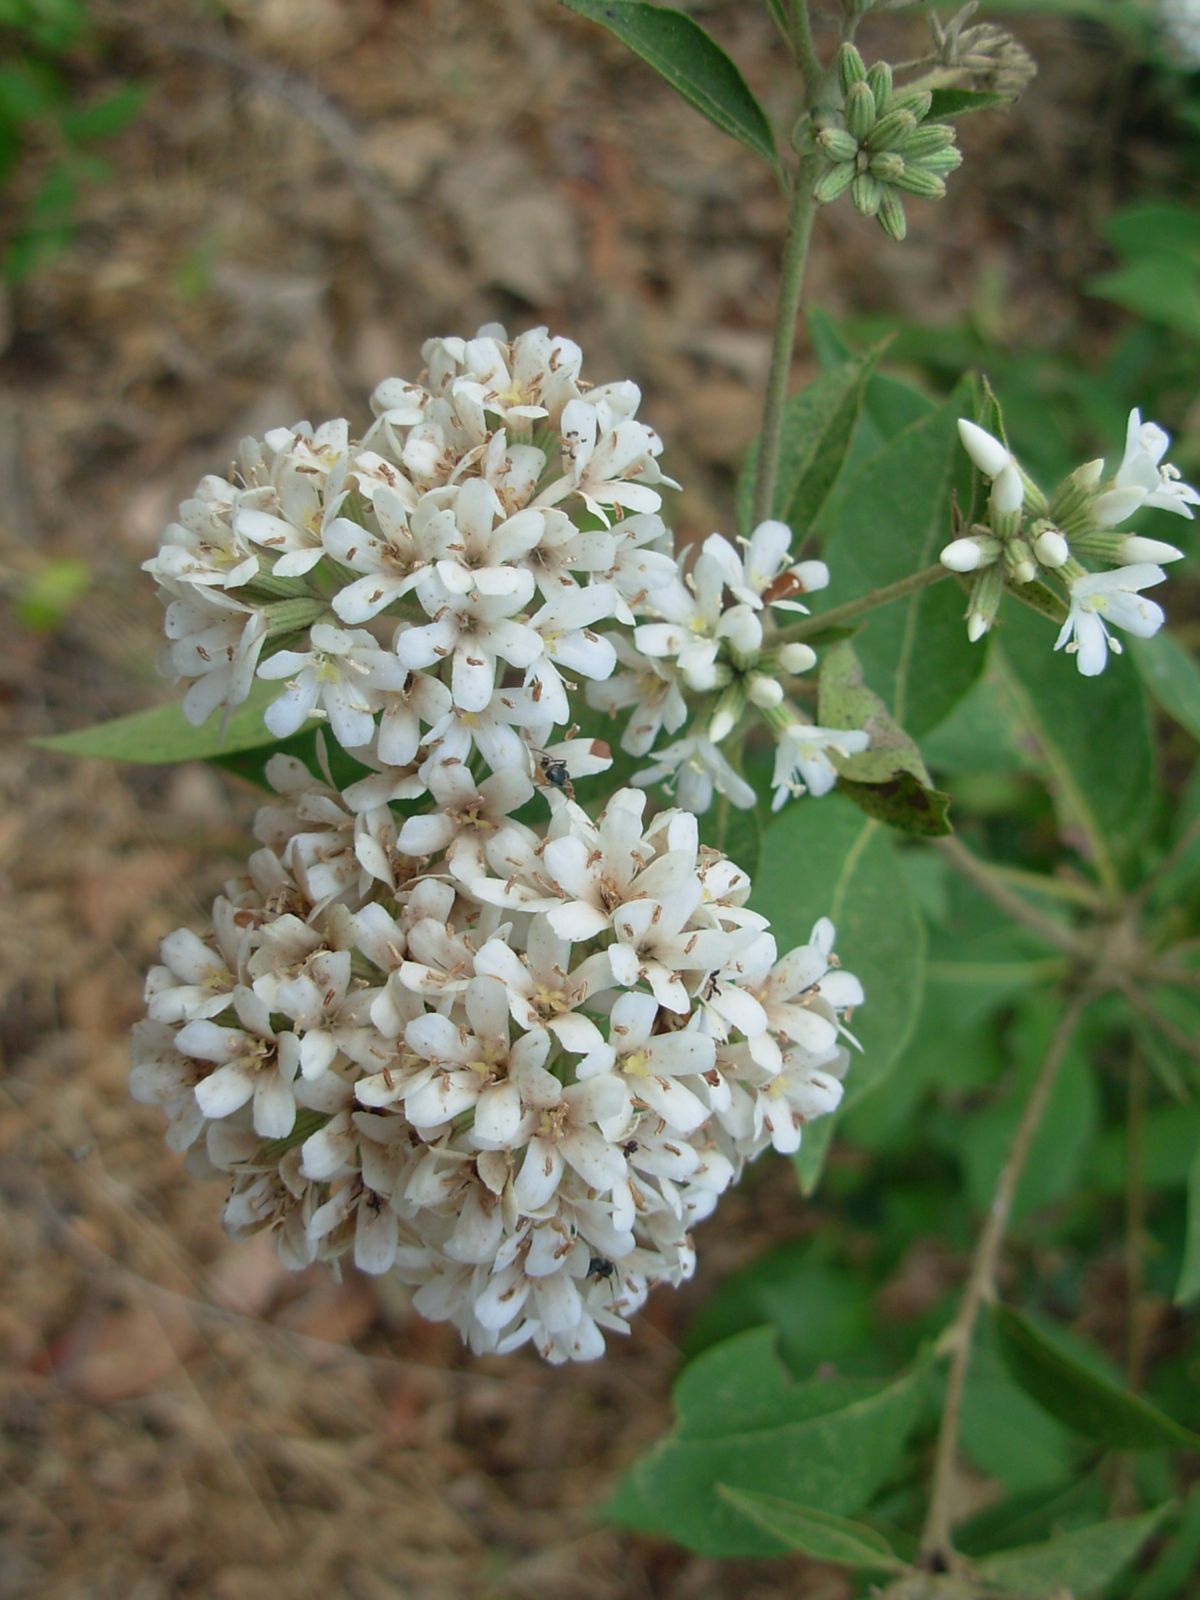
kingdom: Plantae
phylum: Tracheophyta
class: Magnoliopsida
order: Boraginales
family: Cordiaceae
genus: Cordia
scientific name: Cordia alliodora
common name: Spanish elm
